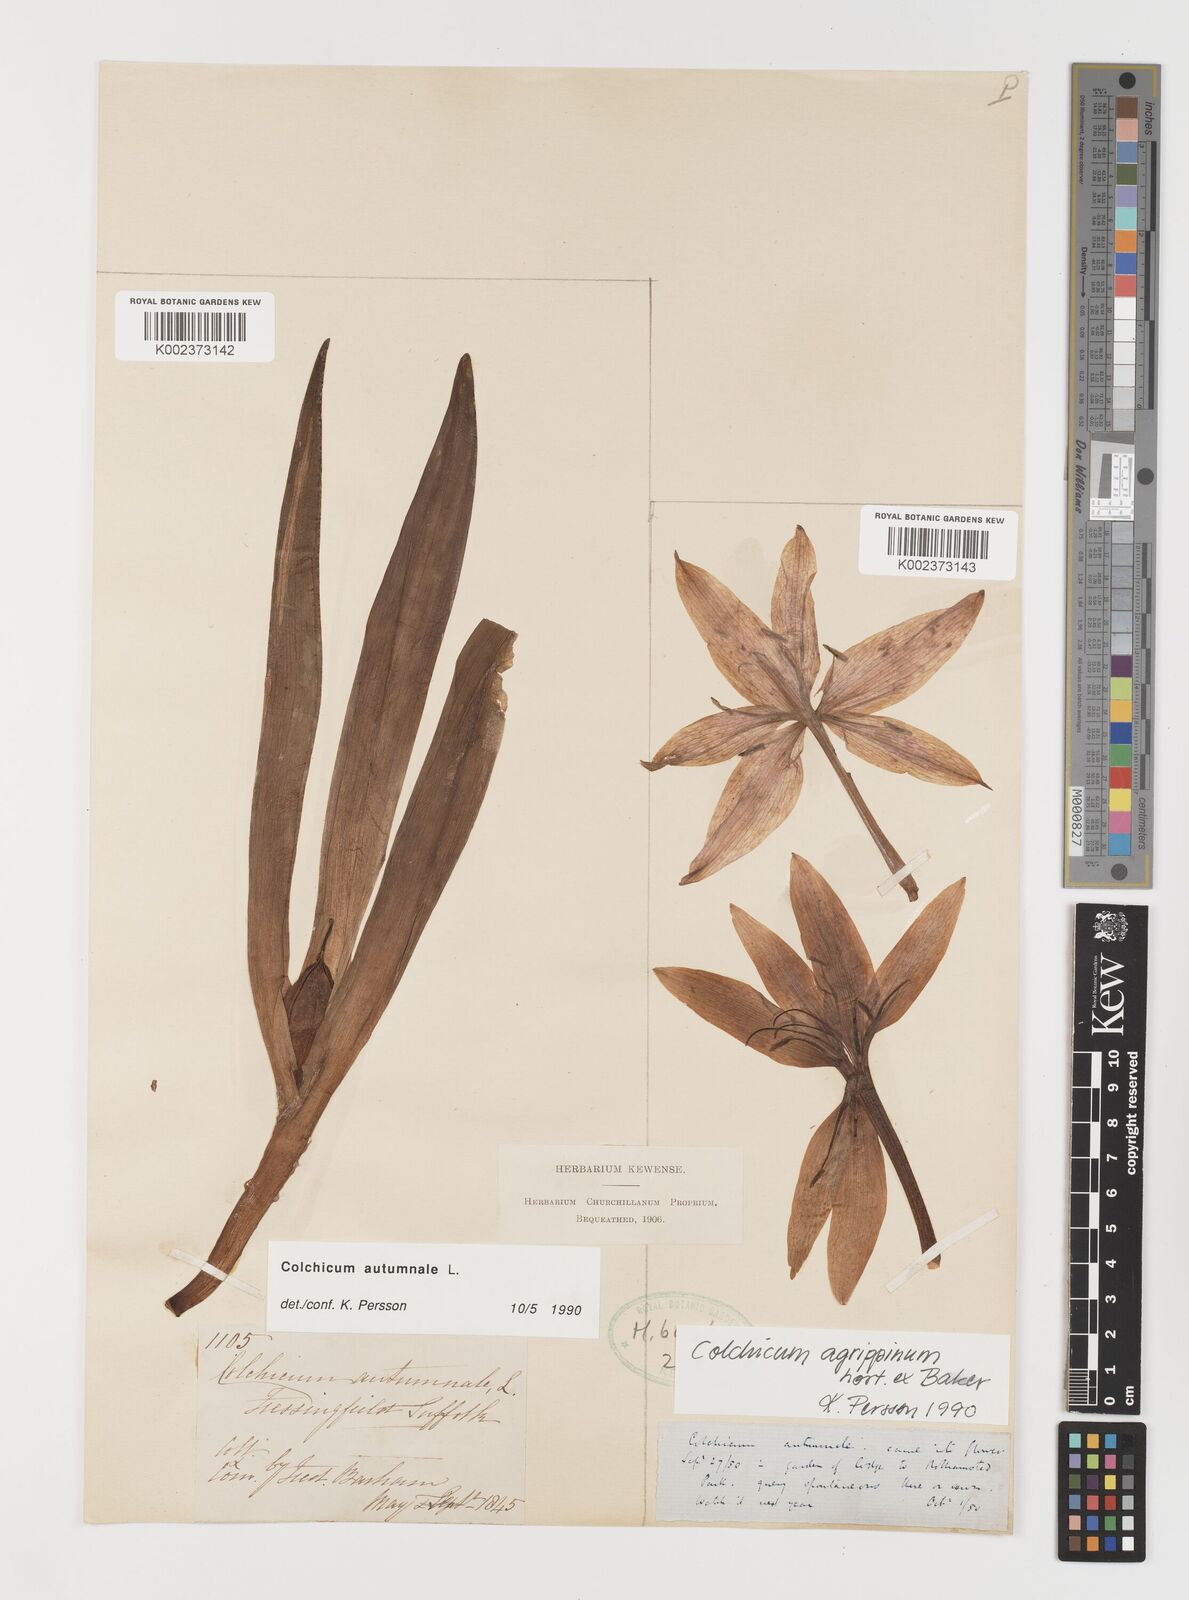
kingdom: Plantae
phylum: Tracheophyta
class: Liliopsida
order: Liliales
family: Colchicaceae
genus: Colchicum
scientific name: Colchicum autumnale
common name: Autumn crocus
